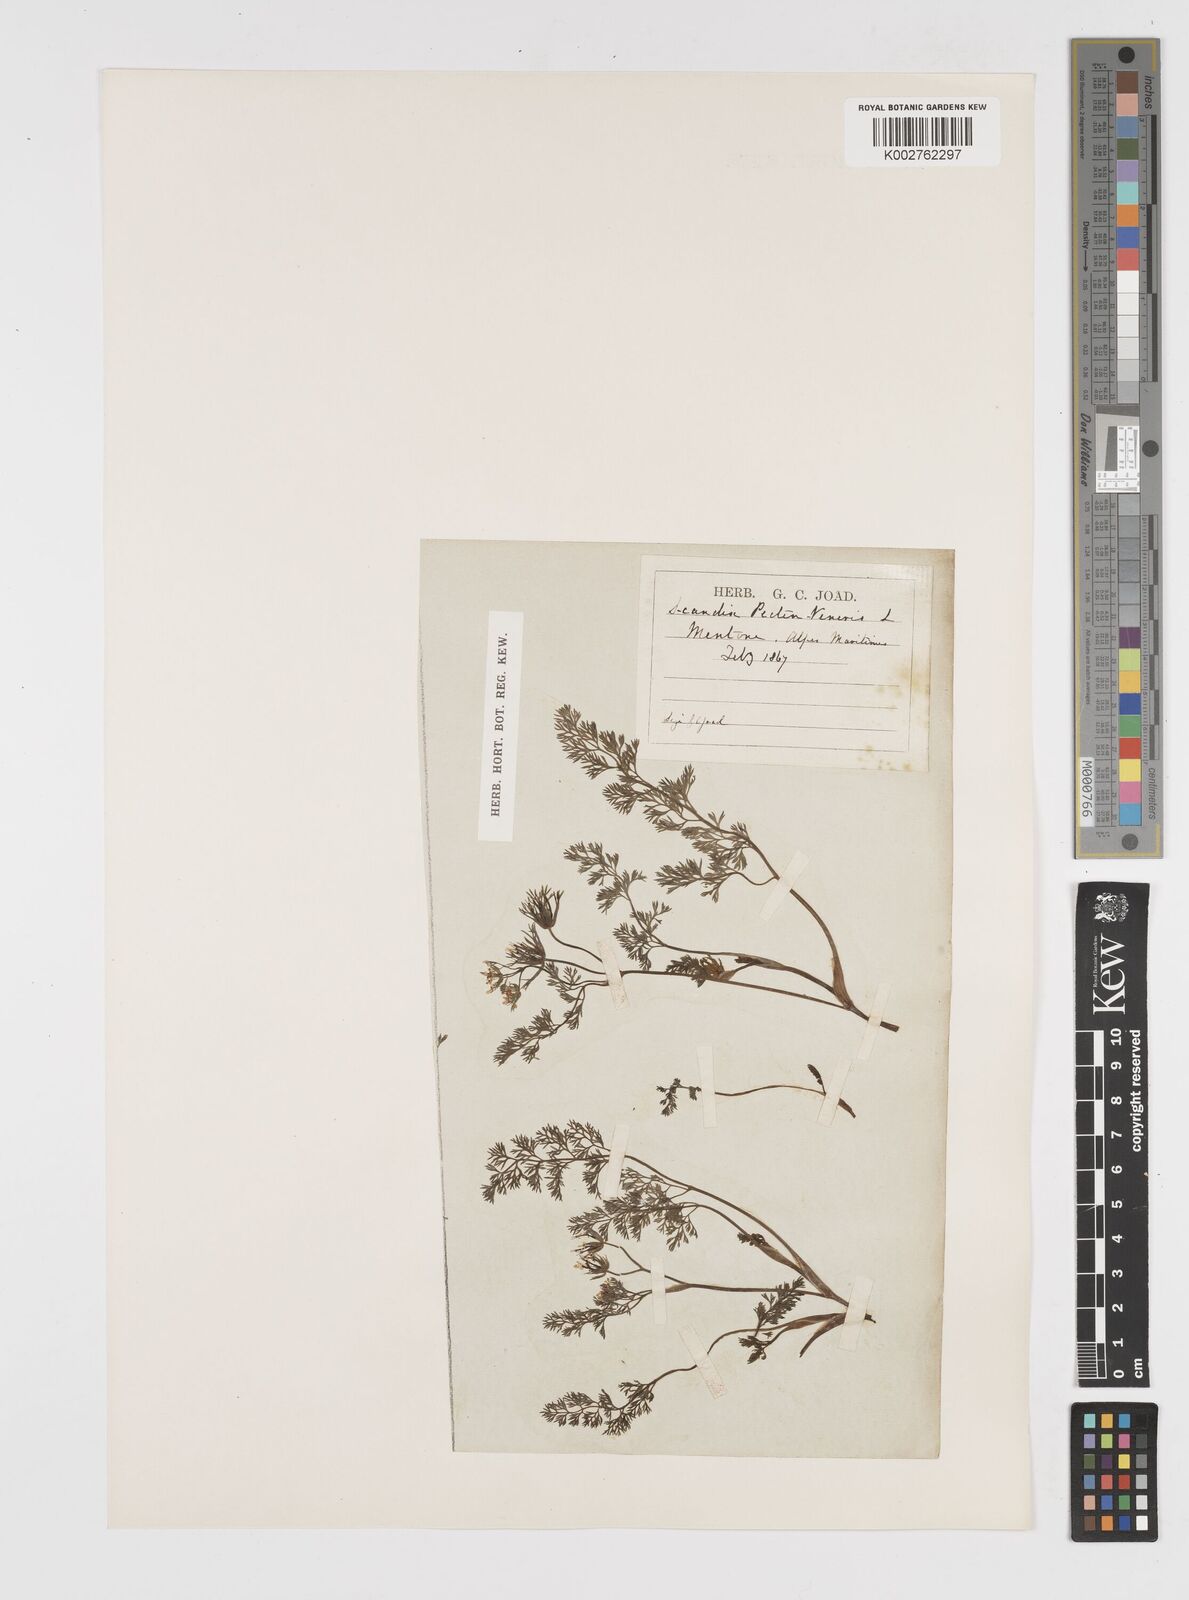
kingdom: Plantae
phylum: Tracheophyta
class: Magnoliopsida
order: Apiales
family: Apiaceae
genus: Scandix
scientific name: Scandix pecten-veneris
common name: Shepherd's-needle
